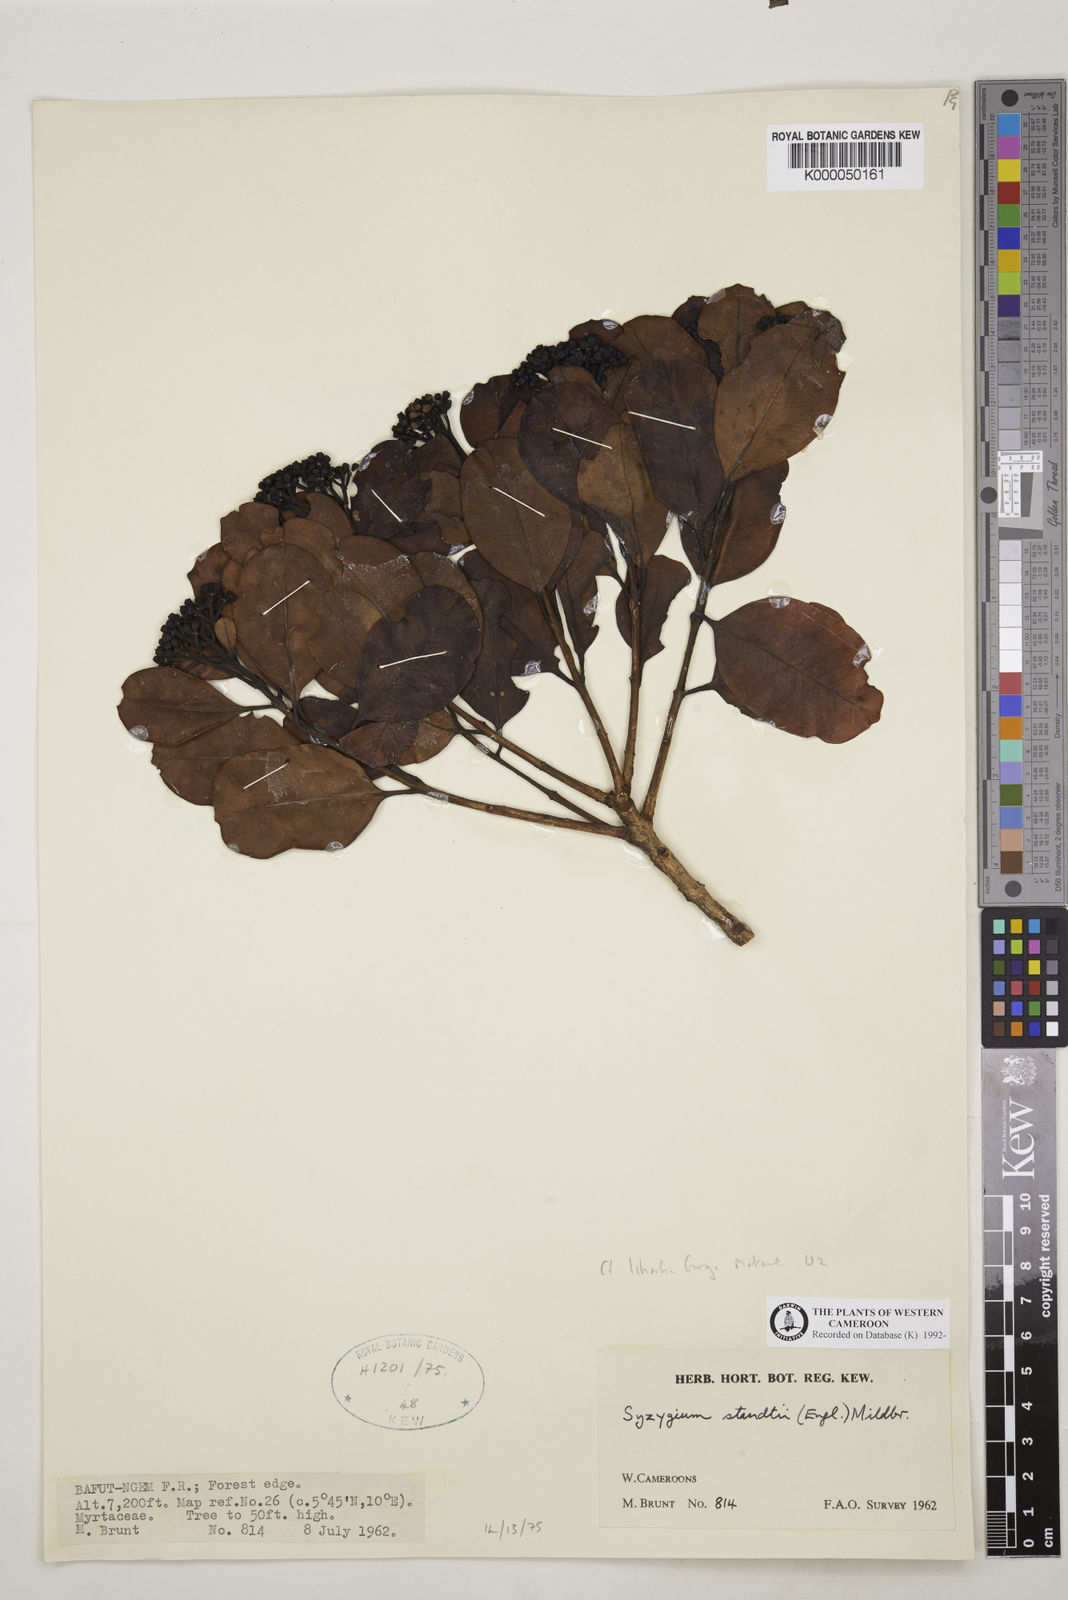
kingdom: Plantae
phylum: Tracheophyta
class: Magnoliopsida
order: Myrtales
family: Myrtaceae
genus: Syzygium
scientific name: Syzygium staudtii
